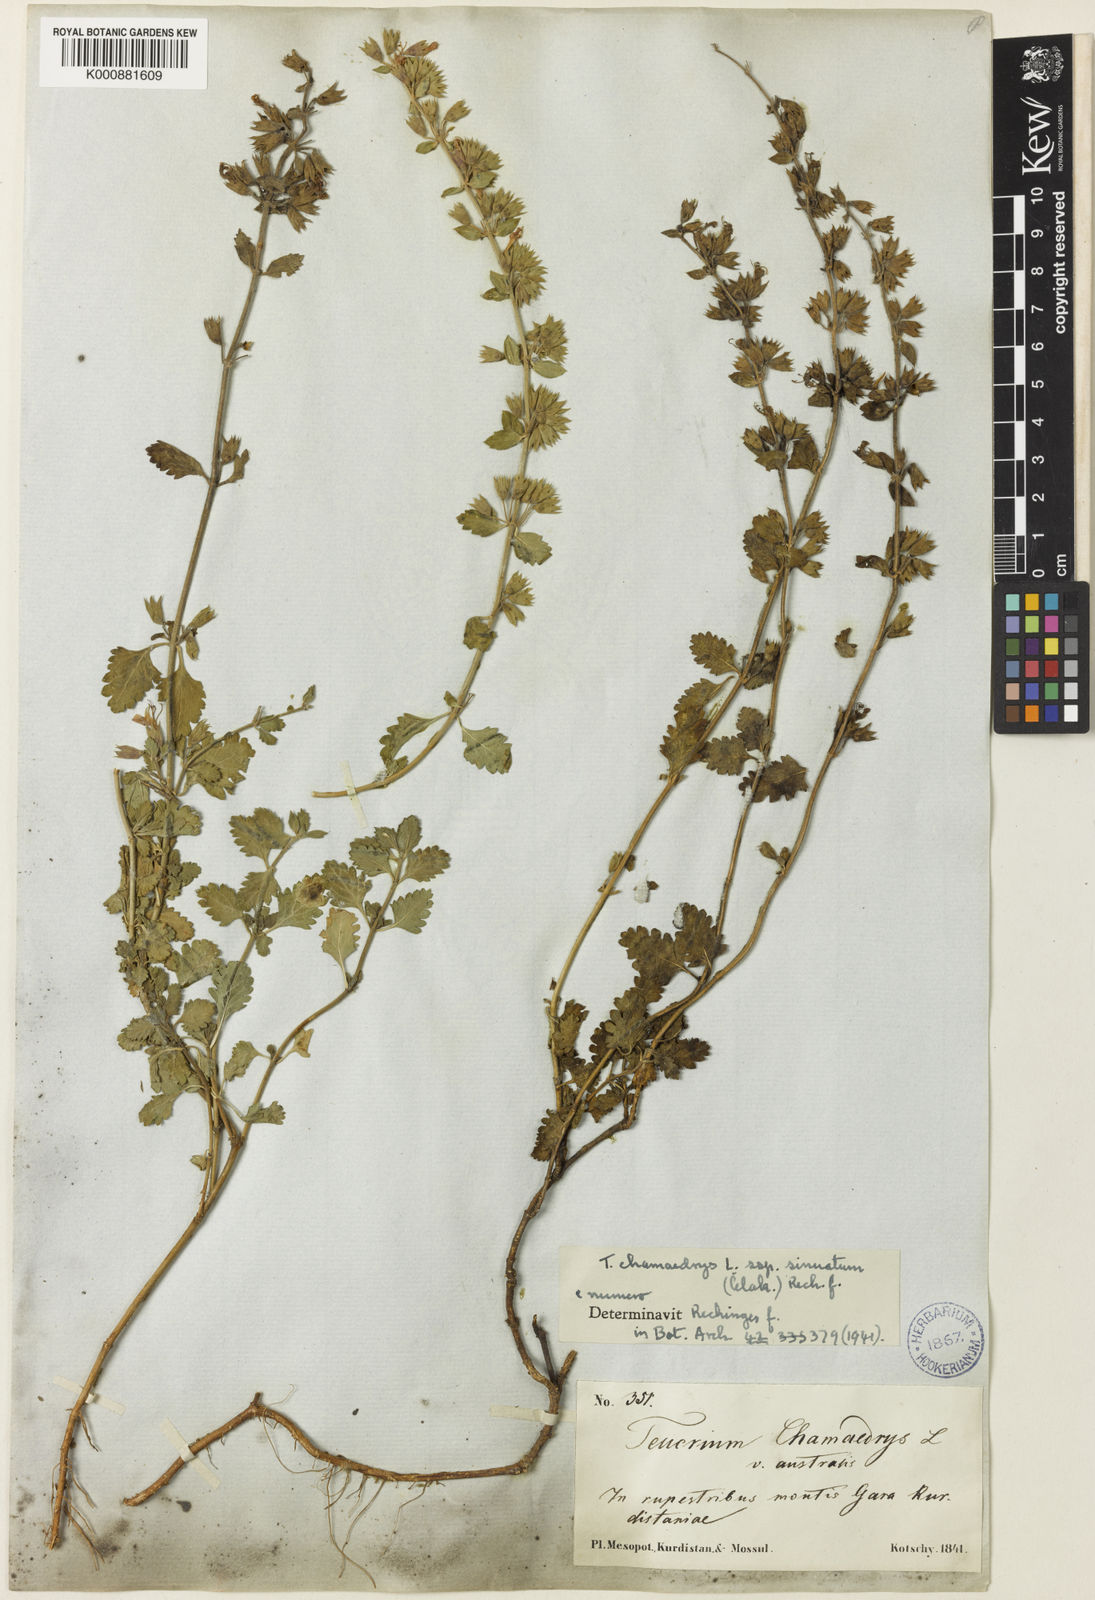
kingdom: Plantae
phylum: Tracheophyta
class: Magnoliopsida
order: Lamiales
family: Lamiaceae
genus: Teucrium
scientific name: Teucrium chamaedrys
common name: Wall germander
